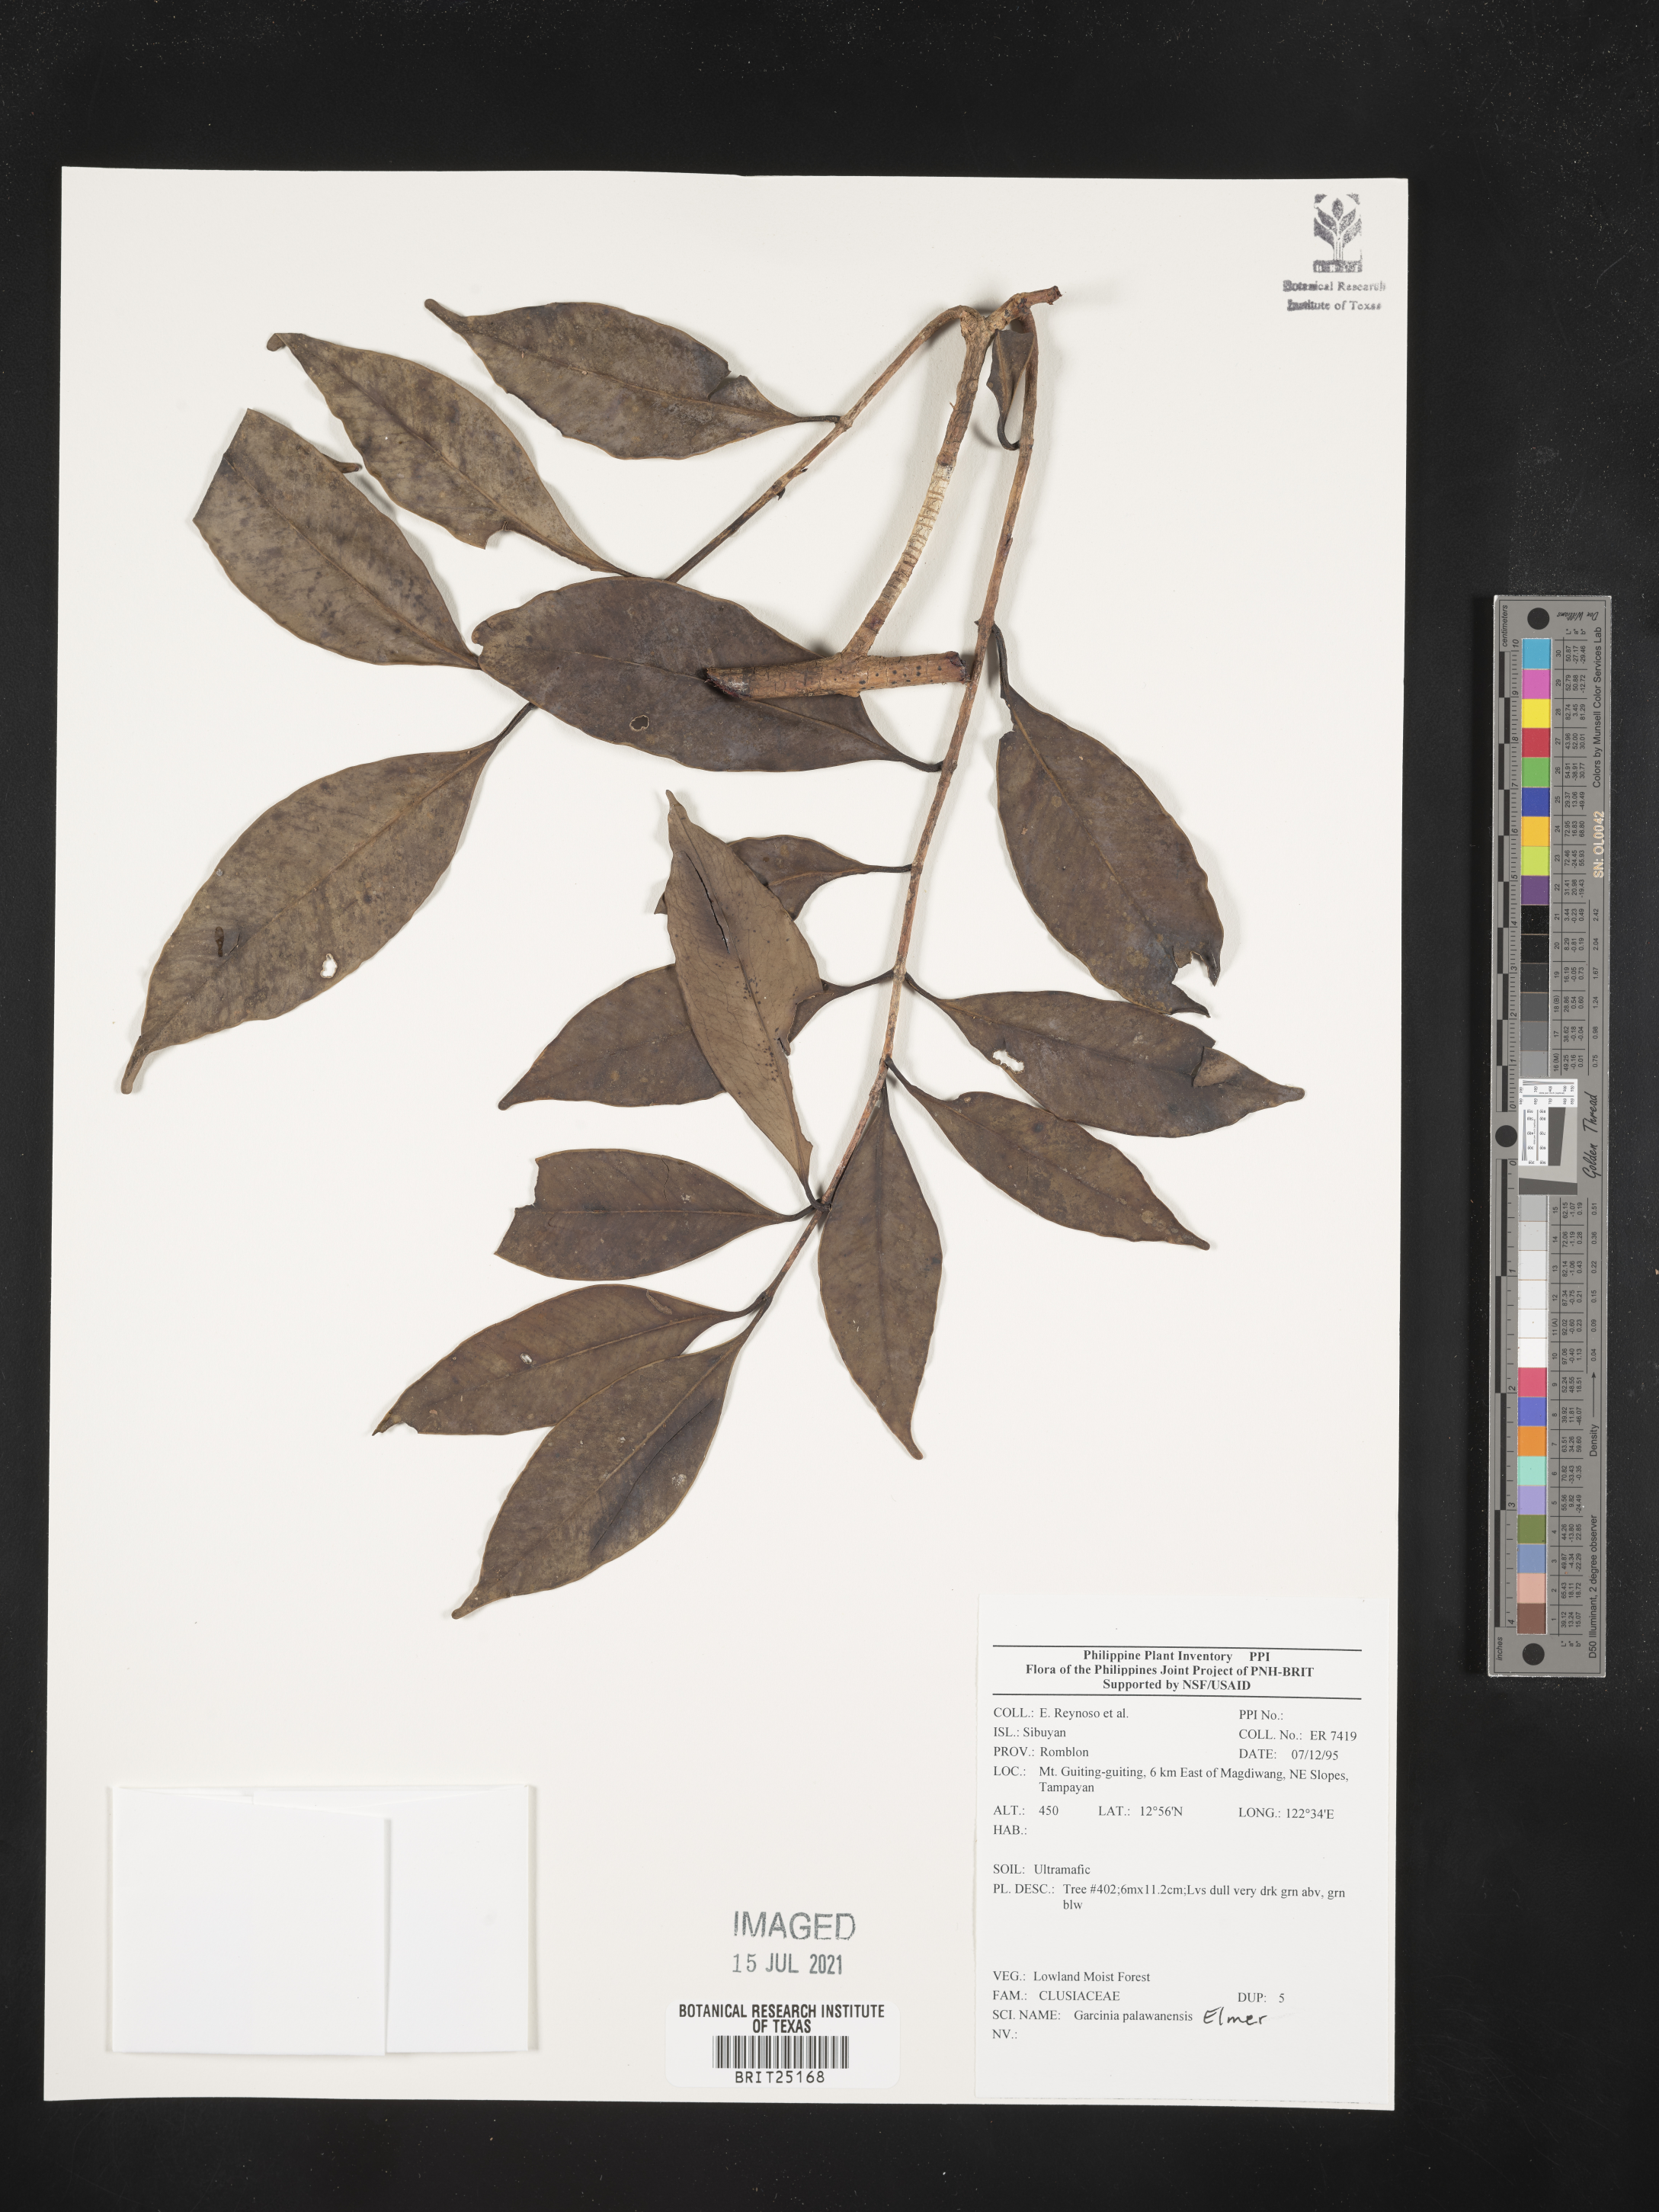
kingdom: Plantae
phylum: Tracheophyta
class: Magnoliopsida
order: Malpighiales
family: Clusiaceae
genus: Garcinia
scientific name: Garcinia dives
